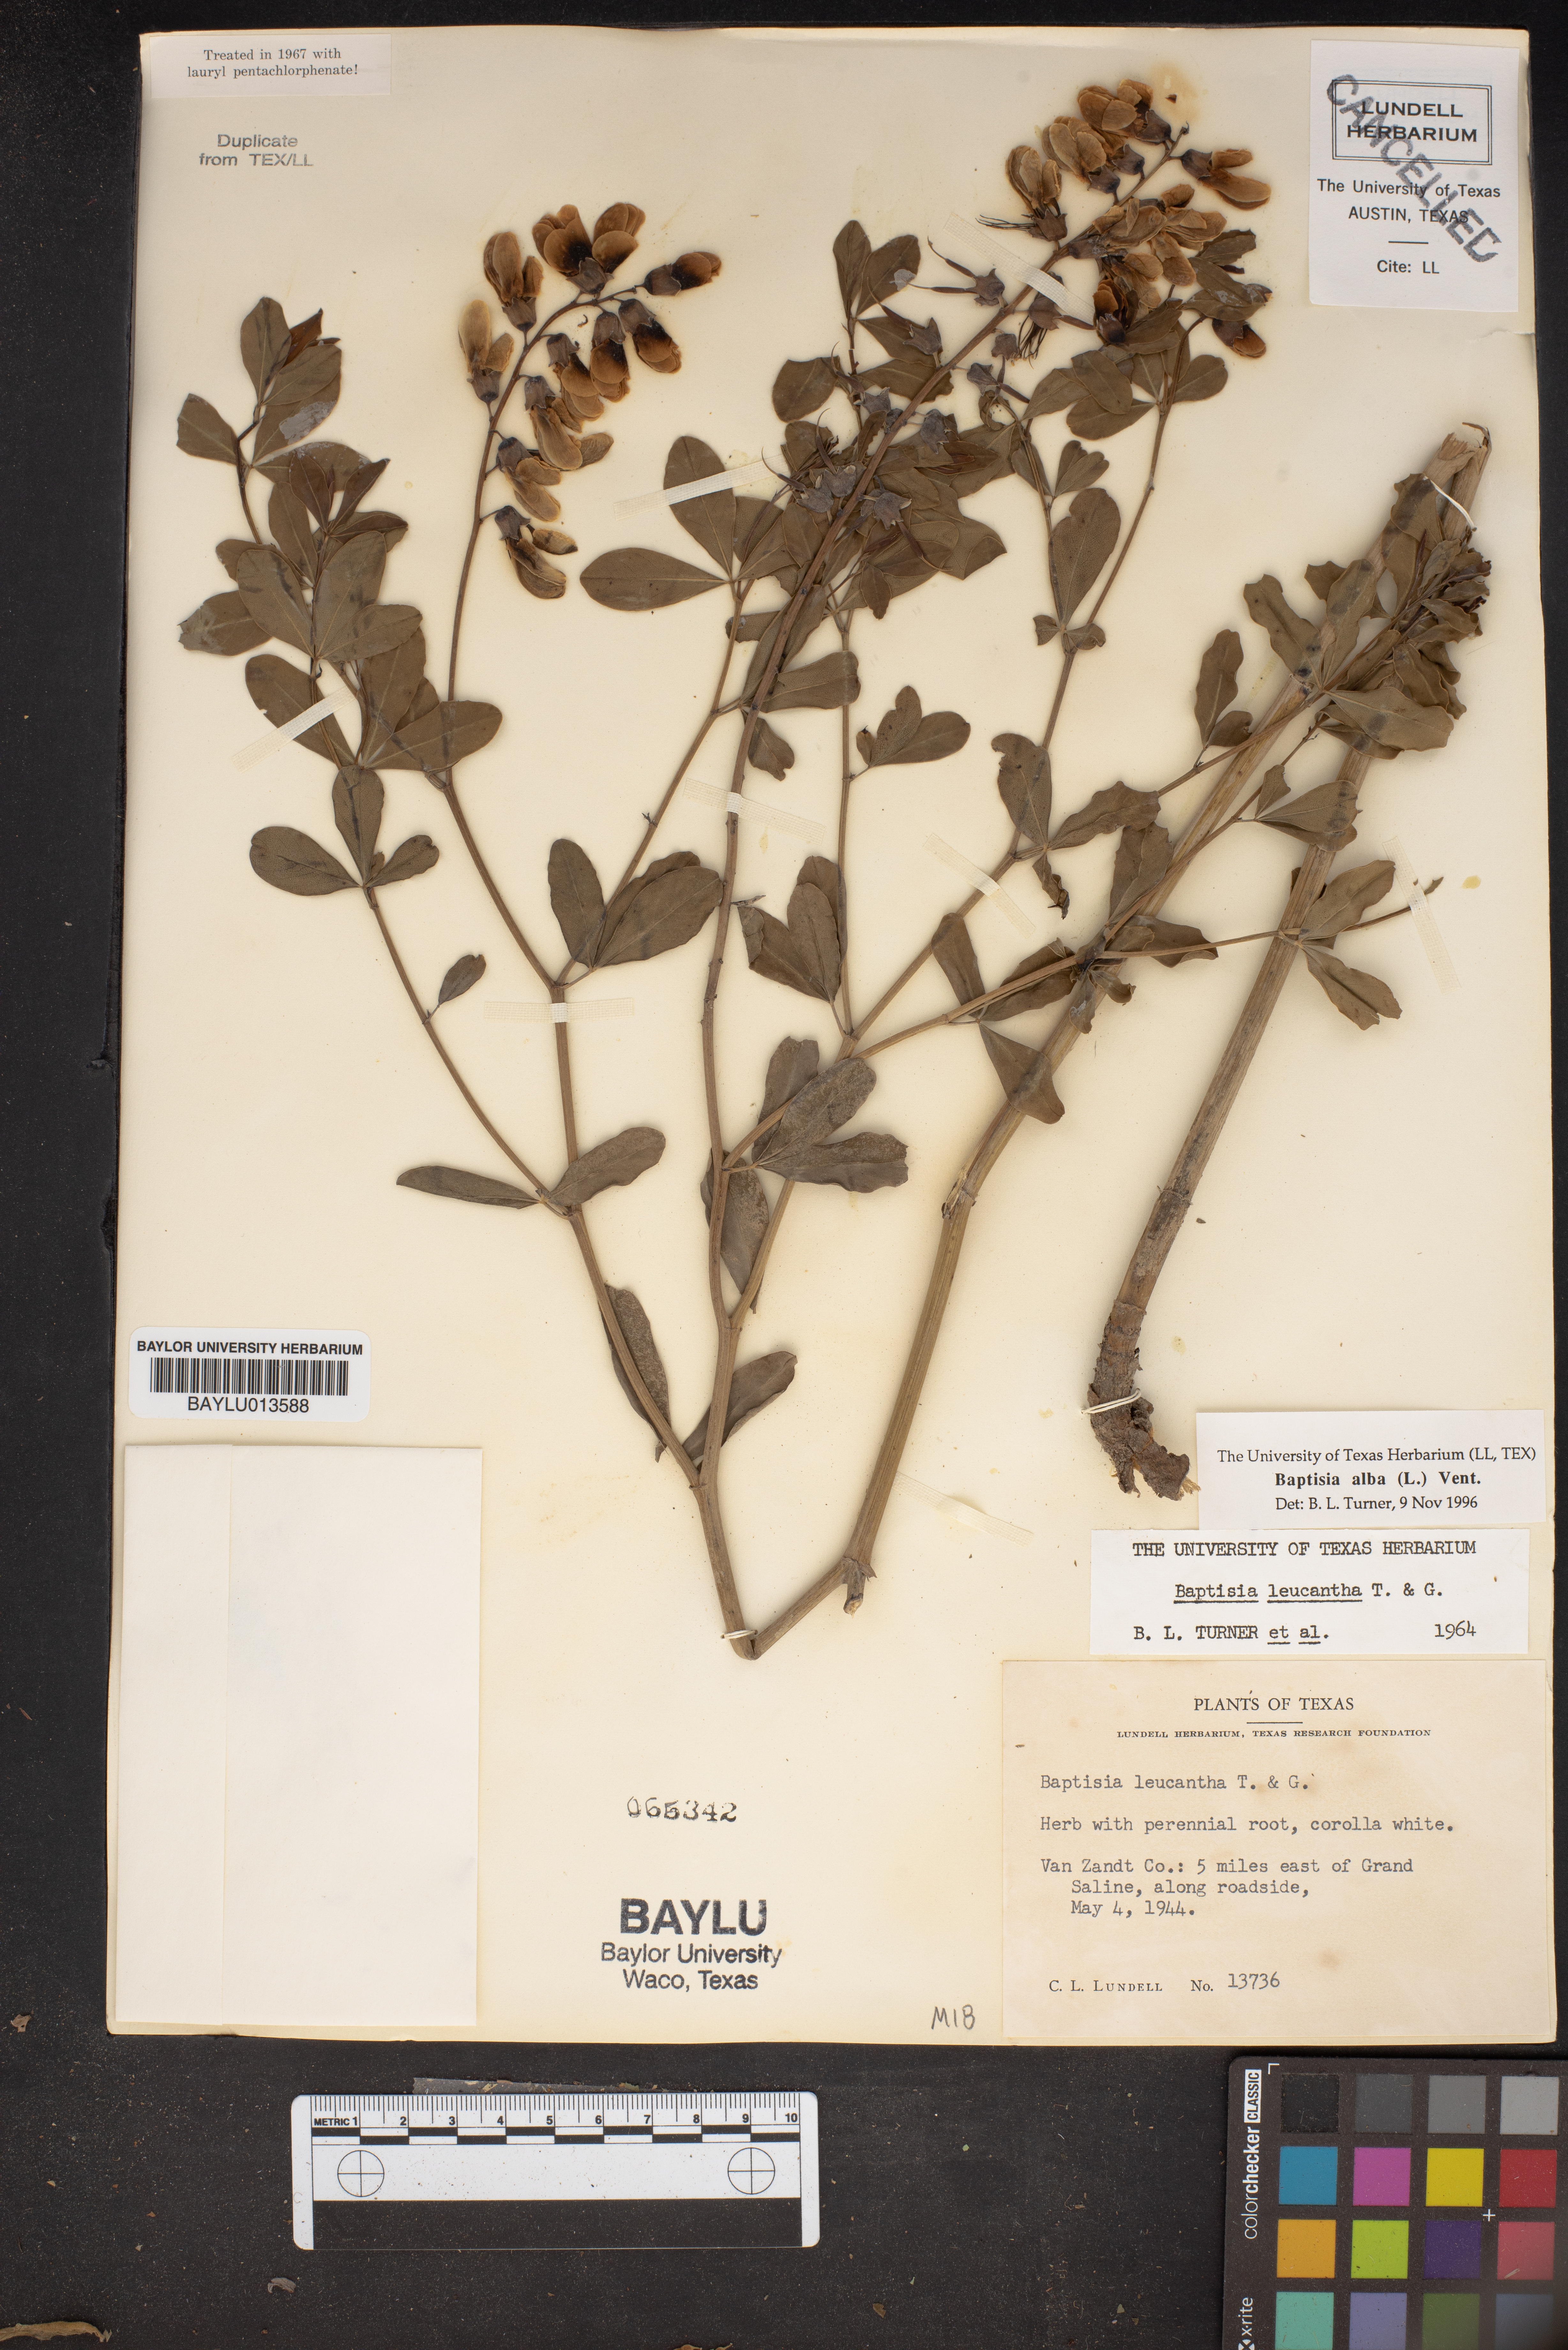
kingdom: Plantae
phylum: Tracheophyta
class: Magnoliopsida
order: Fabales
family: Fabaceae
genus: Baptisia
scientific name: Baptisia alba
